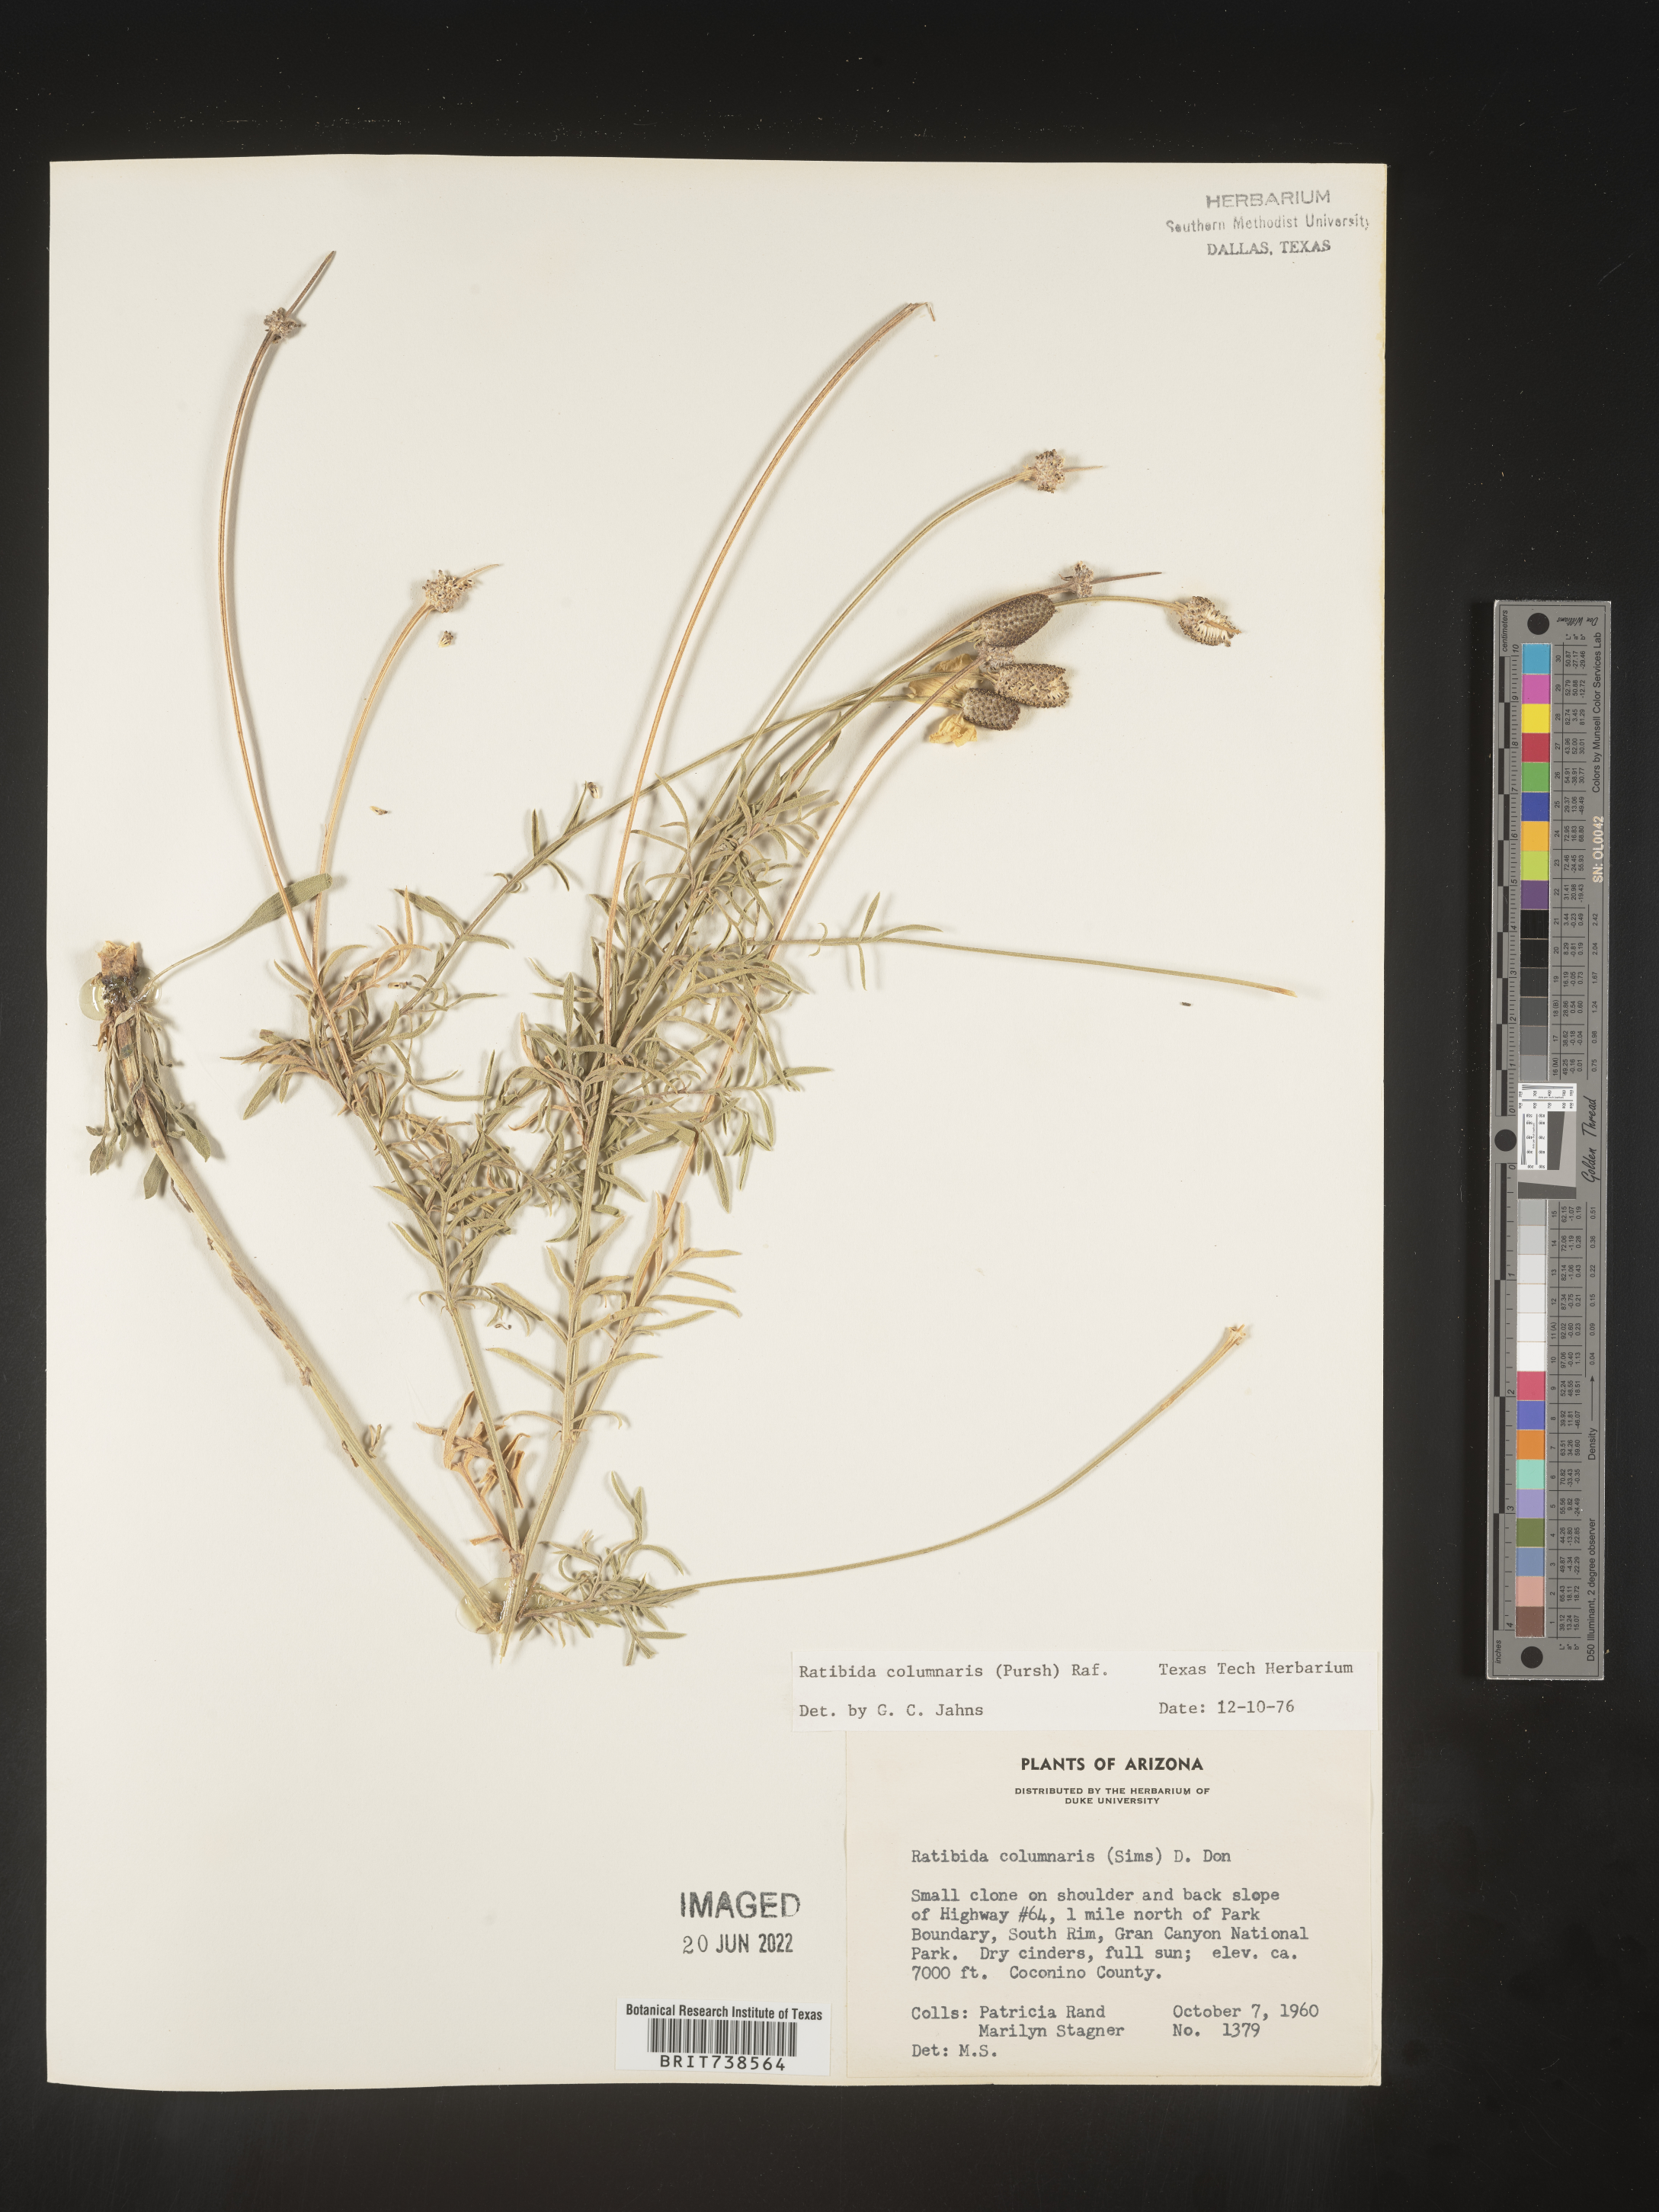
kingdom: Plantae
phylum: Tracheophyta
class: Magnoliopsida
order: Asterales
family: Asteraceae
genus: Ratibida
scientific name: Ratibida columnifera
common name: Prairie coneflower
